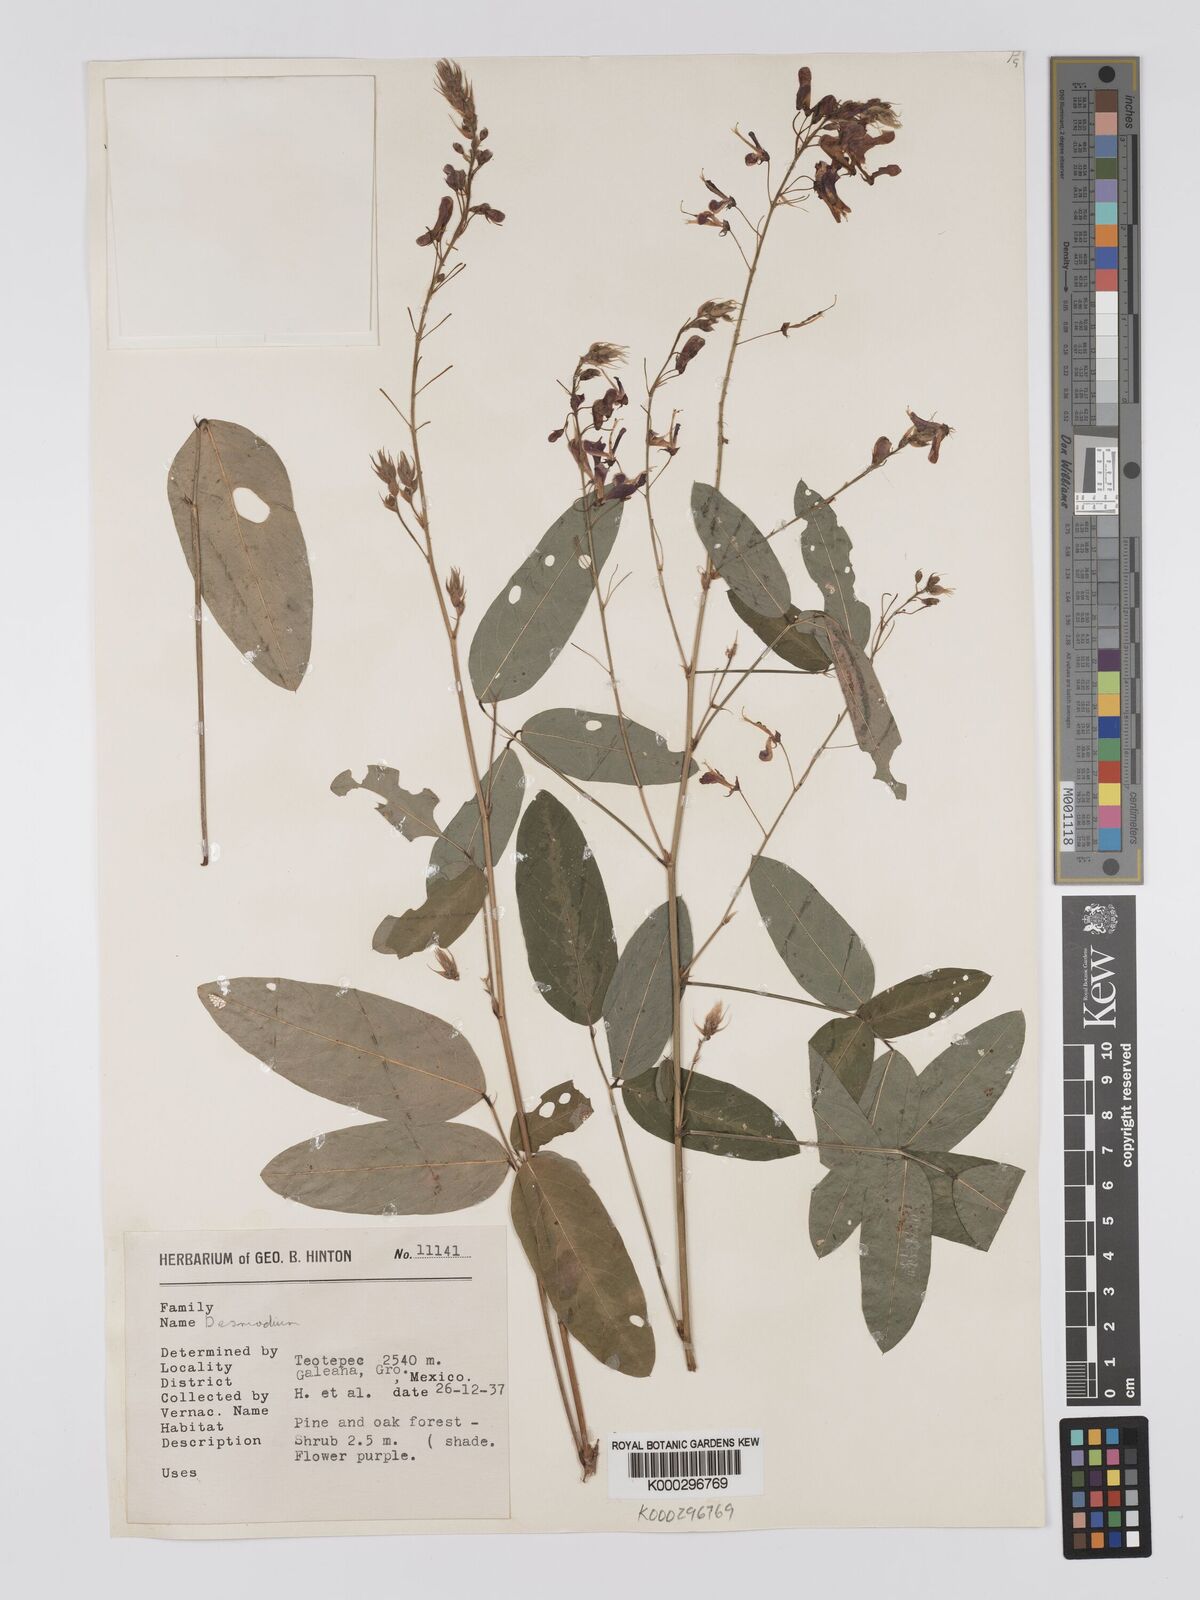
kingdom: Plantae
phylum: Tracheophyta
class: Magnoliopsida
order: Fabales
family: Fabaceae
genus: Desmodium
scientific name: Desmodium
